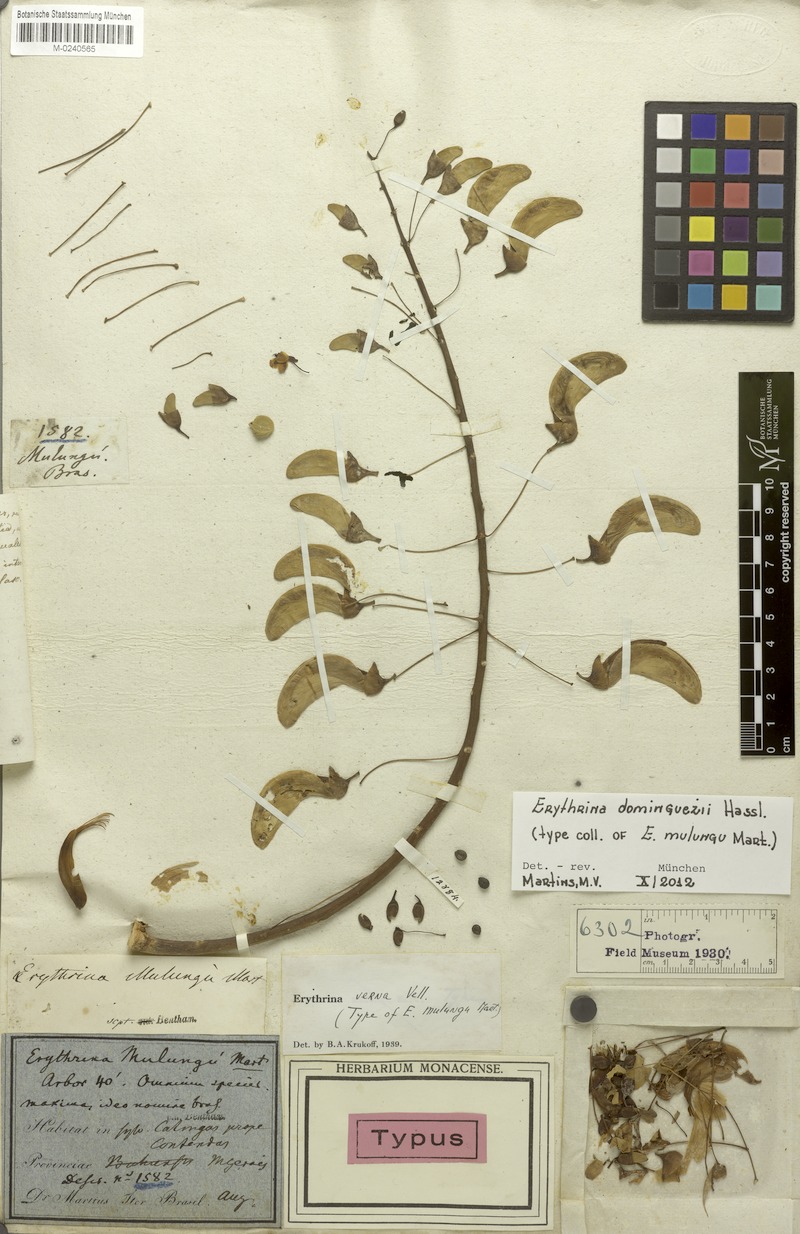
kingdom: Plantae
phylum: Tracheophyta
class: Magnoliopsida
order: Fabales
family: Fabaceae
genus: Erythrina
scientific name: Erythrina mulungu
